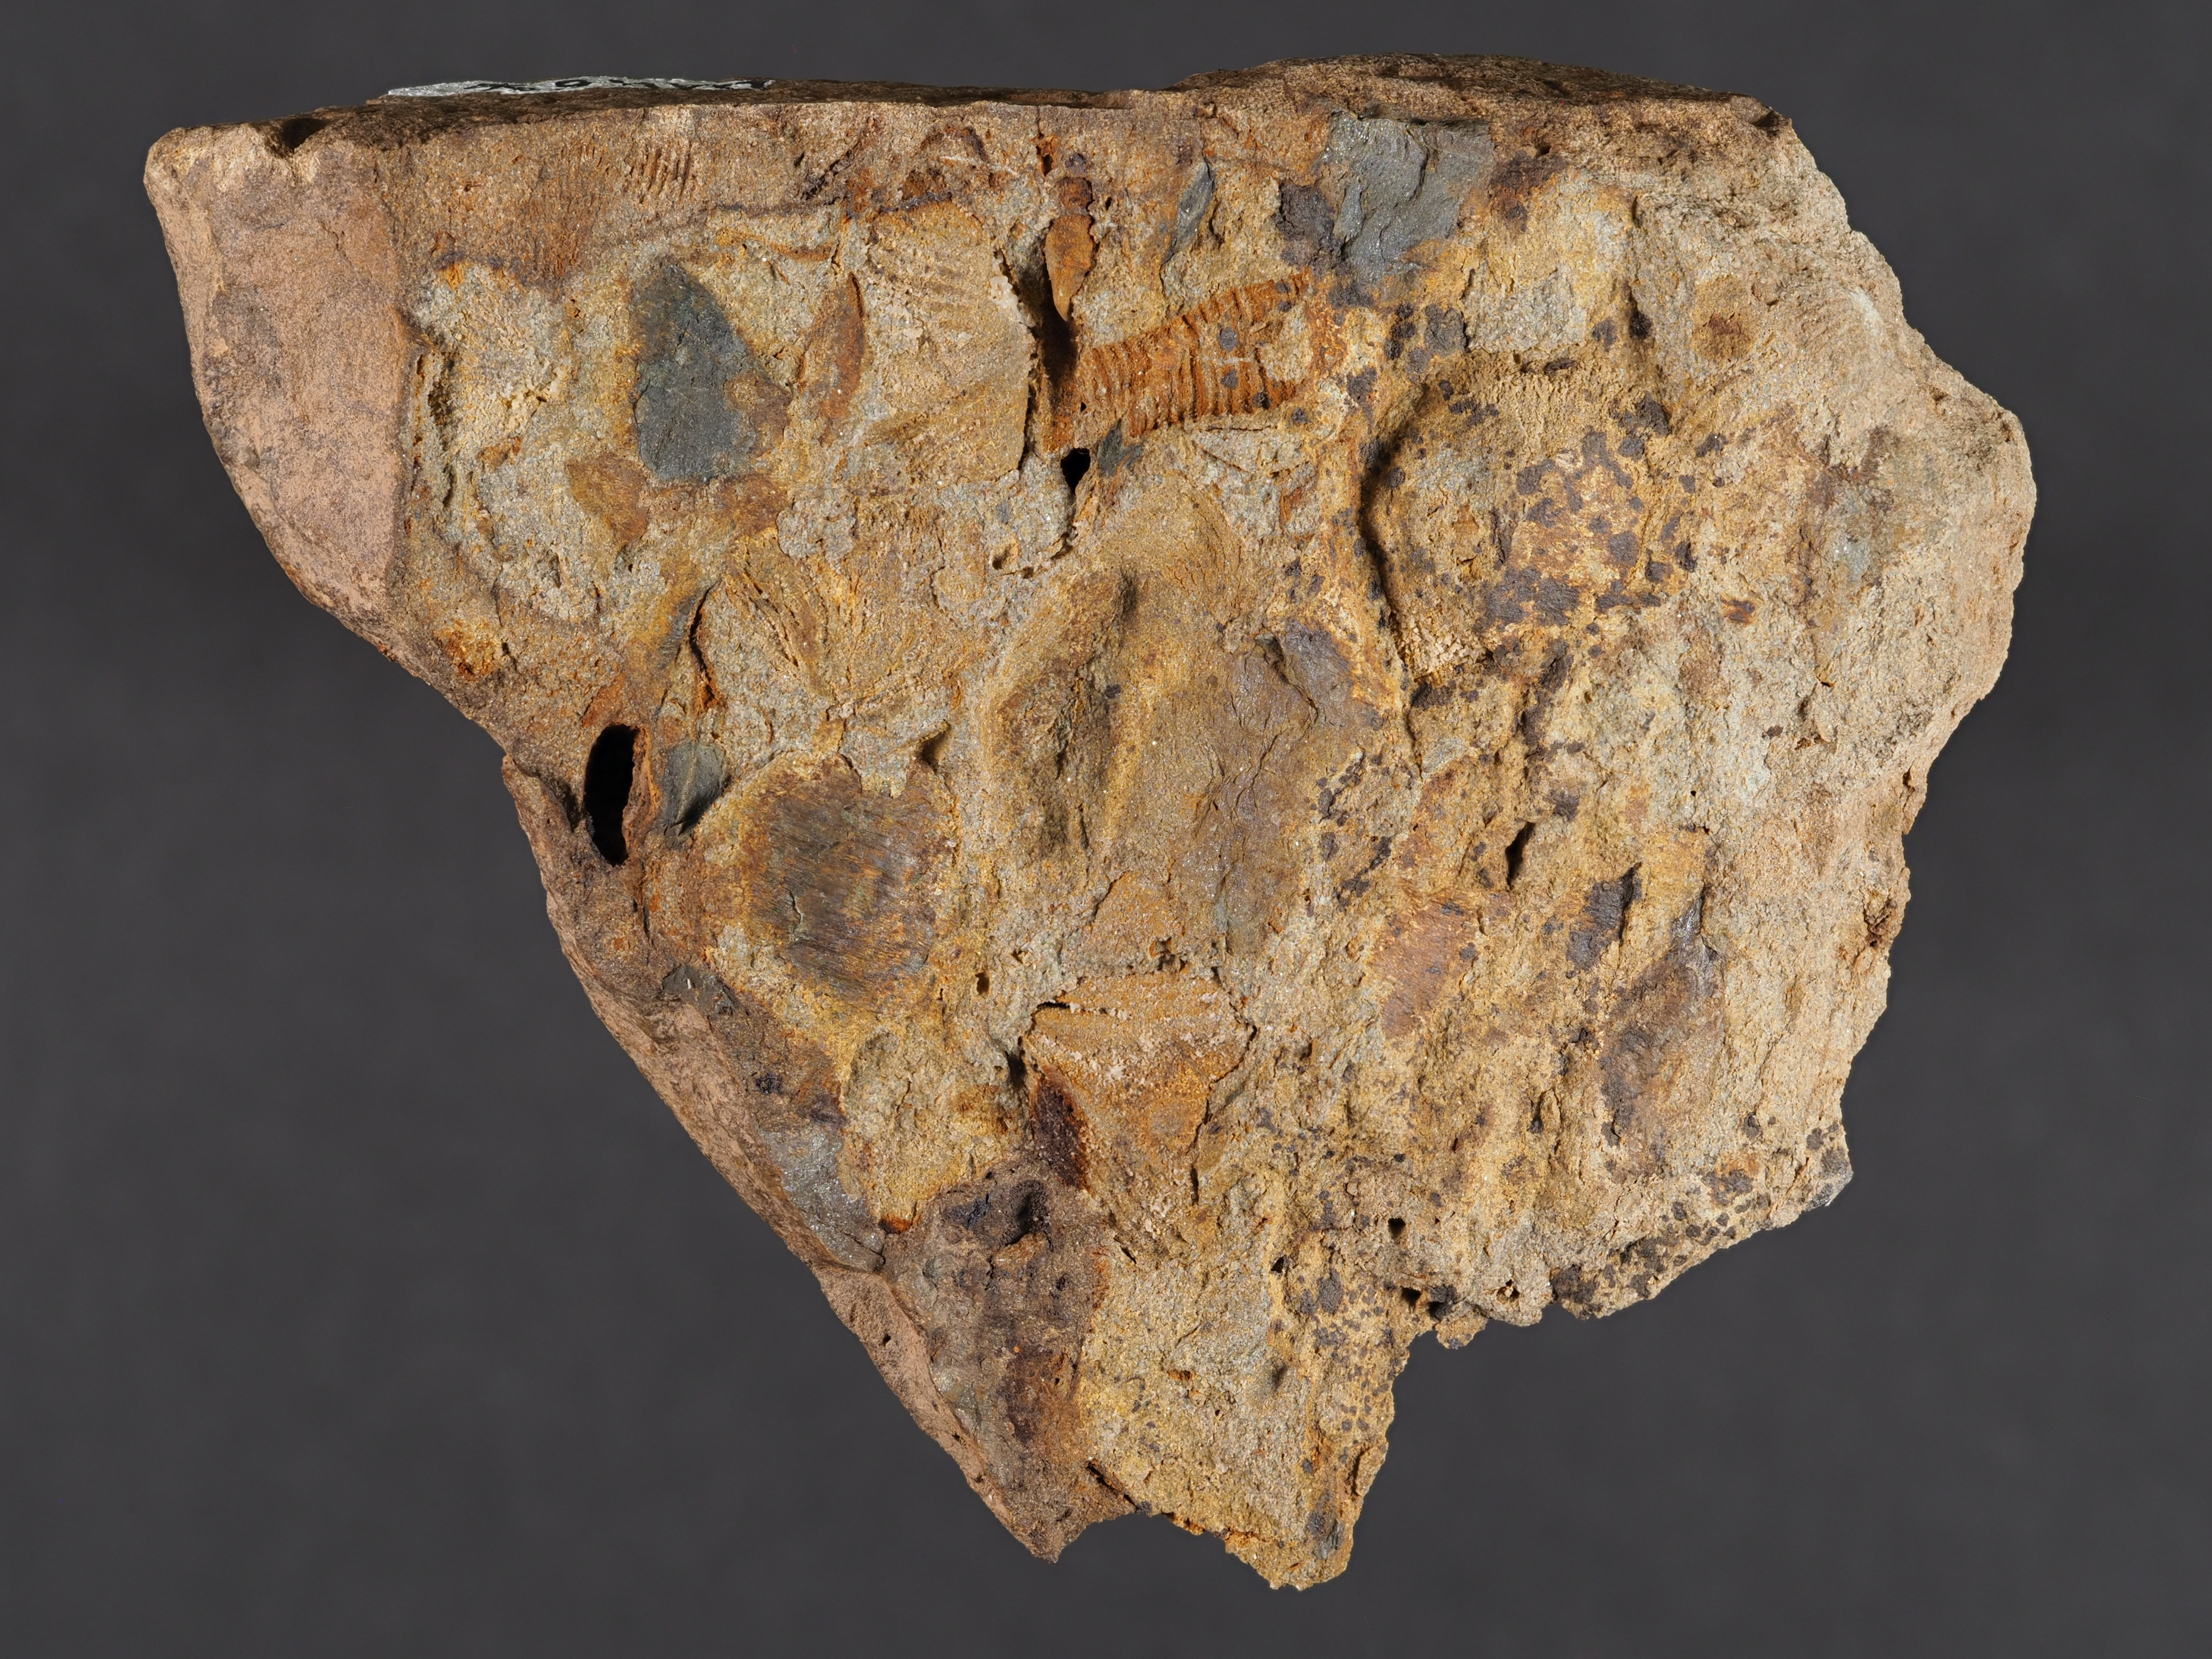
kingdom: Animalia
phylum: Brachiopoda
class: Rhynchonellata
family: Spinocyrtiidae
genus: Subcuspidella
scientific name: Subcuspidella
